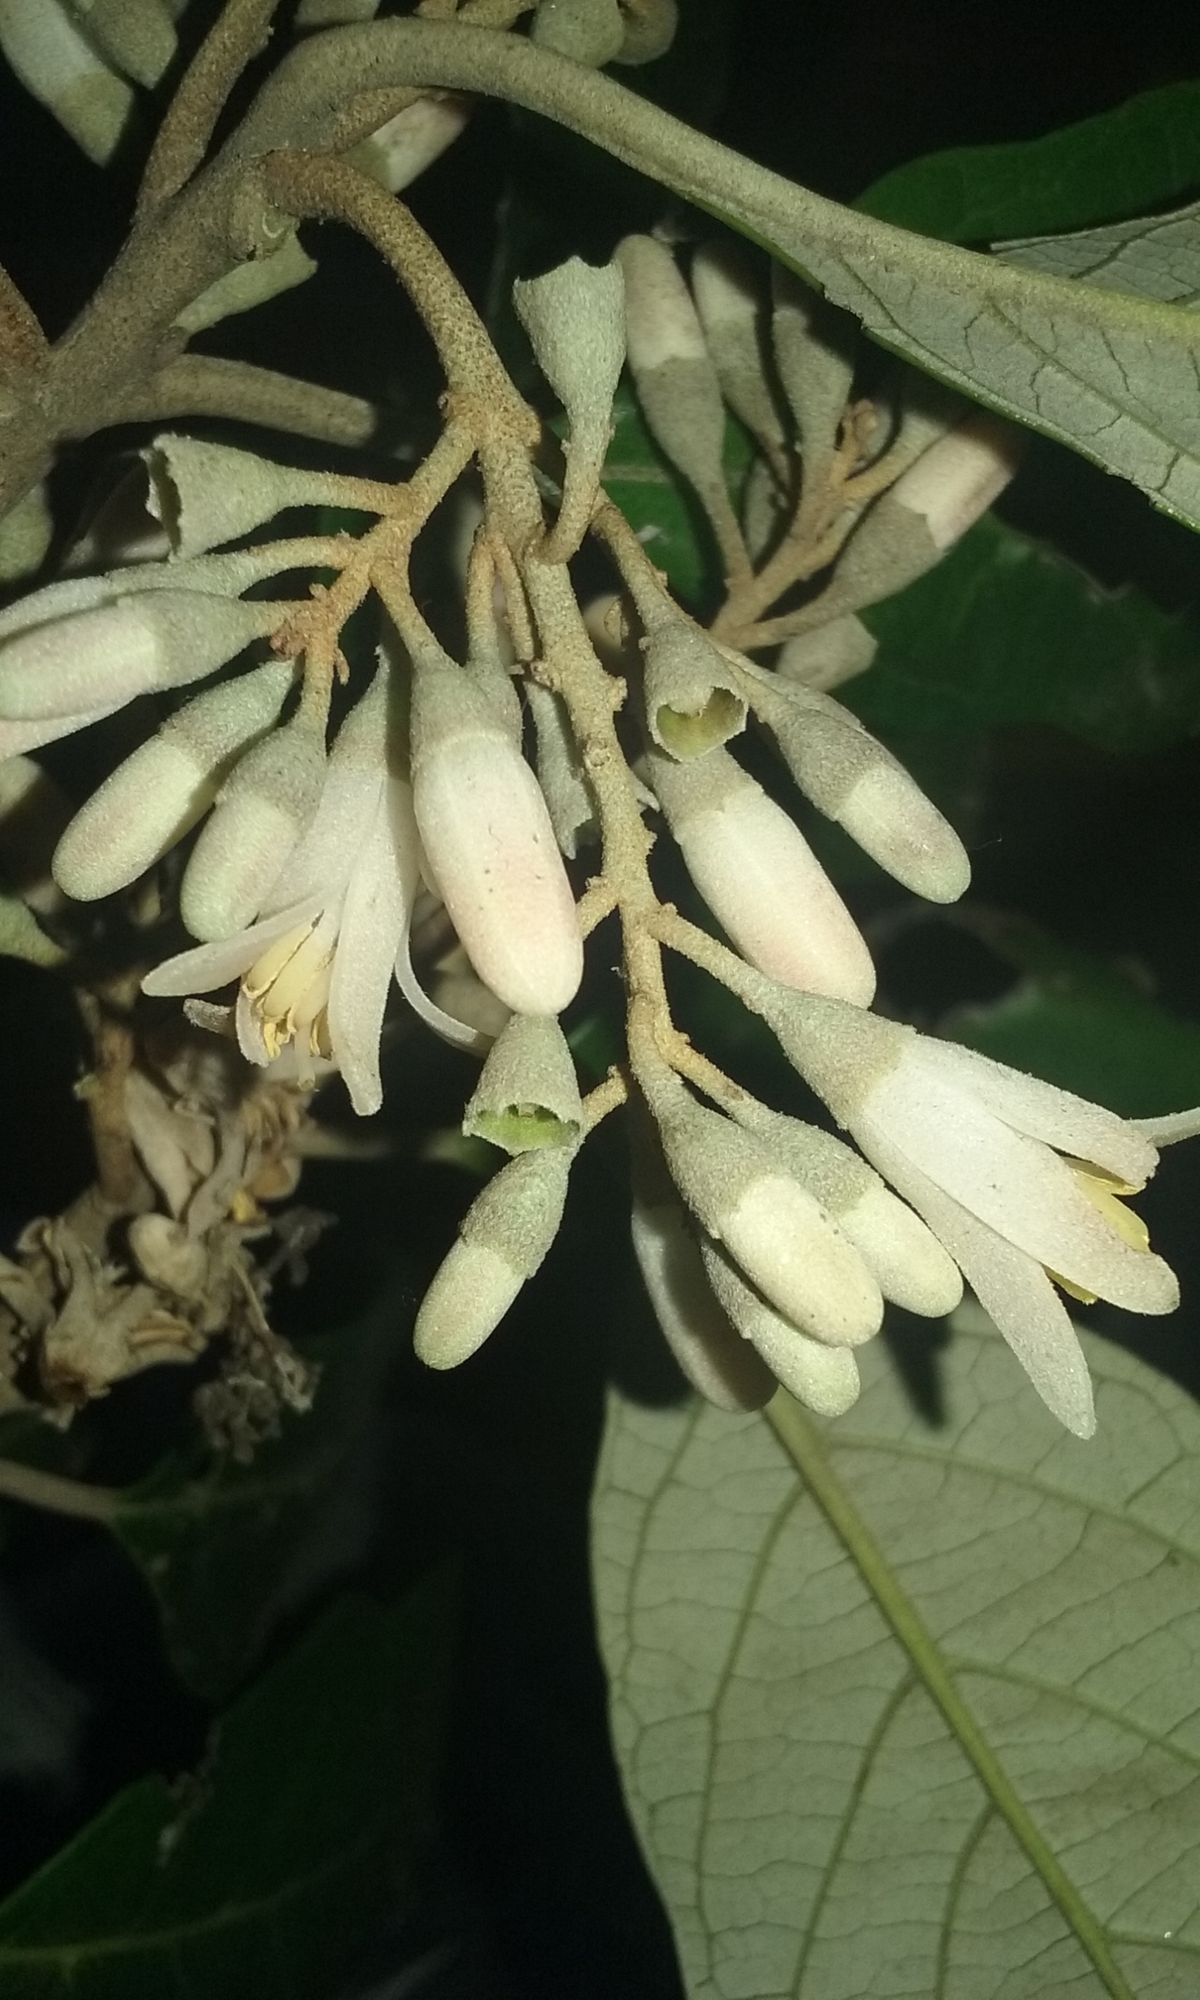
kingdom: Plantae
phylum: Tracheophyta
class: Magnoliopsida
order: Ericales
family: Styracaceae
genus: Styrax
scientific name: Styrax argenteus
